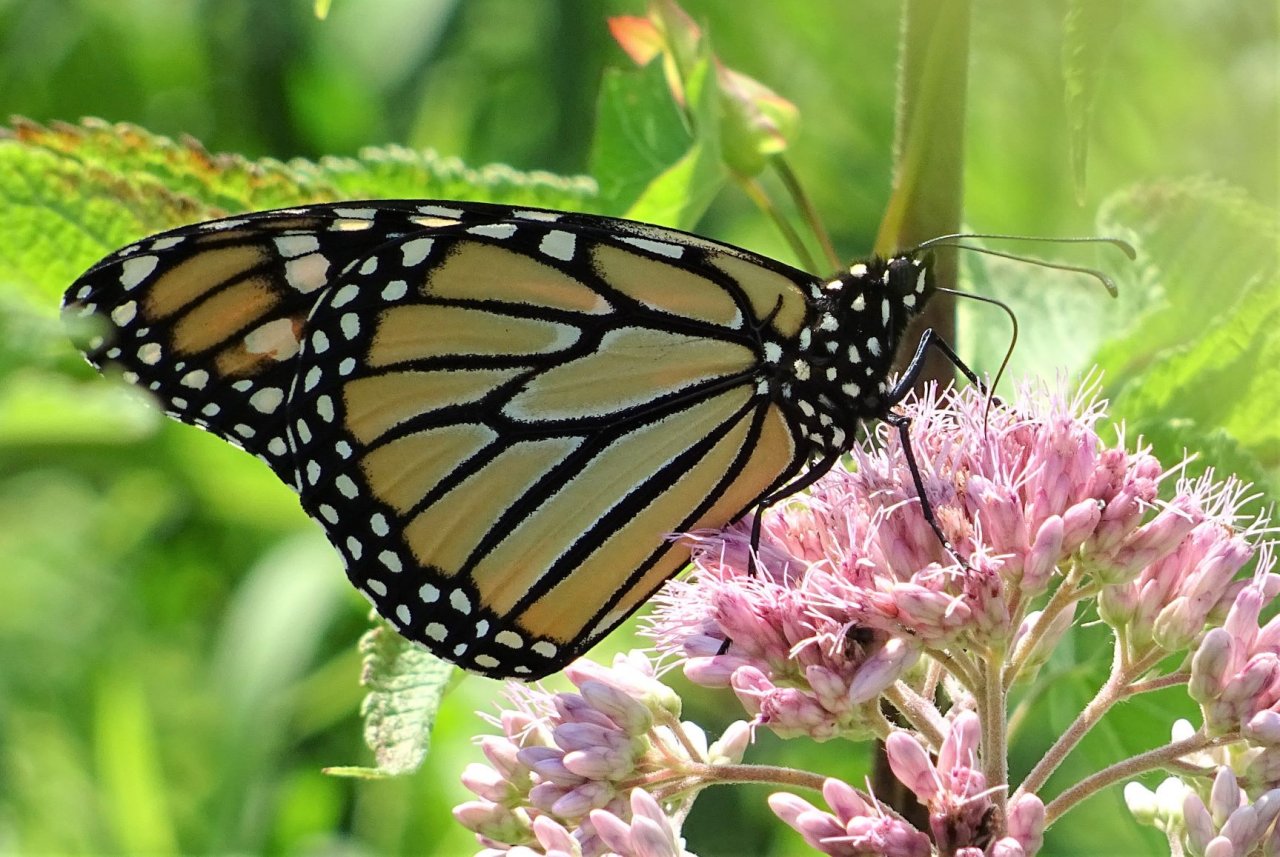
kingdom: Animalia
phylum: Arthropoda
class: Insecta
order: Lepidoptera
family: Nymphalidae
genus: Danaus
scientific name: Danaus plexippus
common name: Monarch
